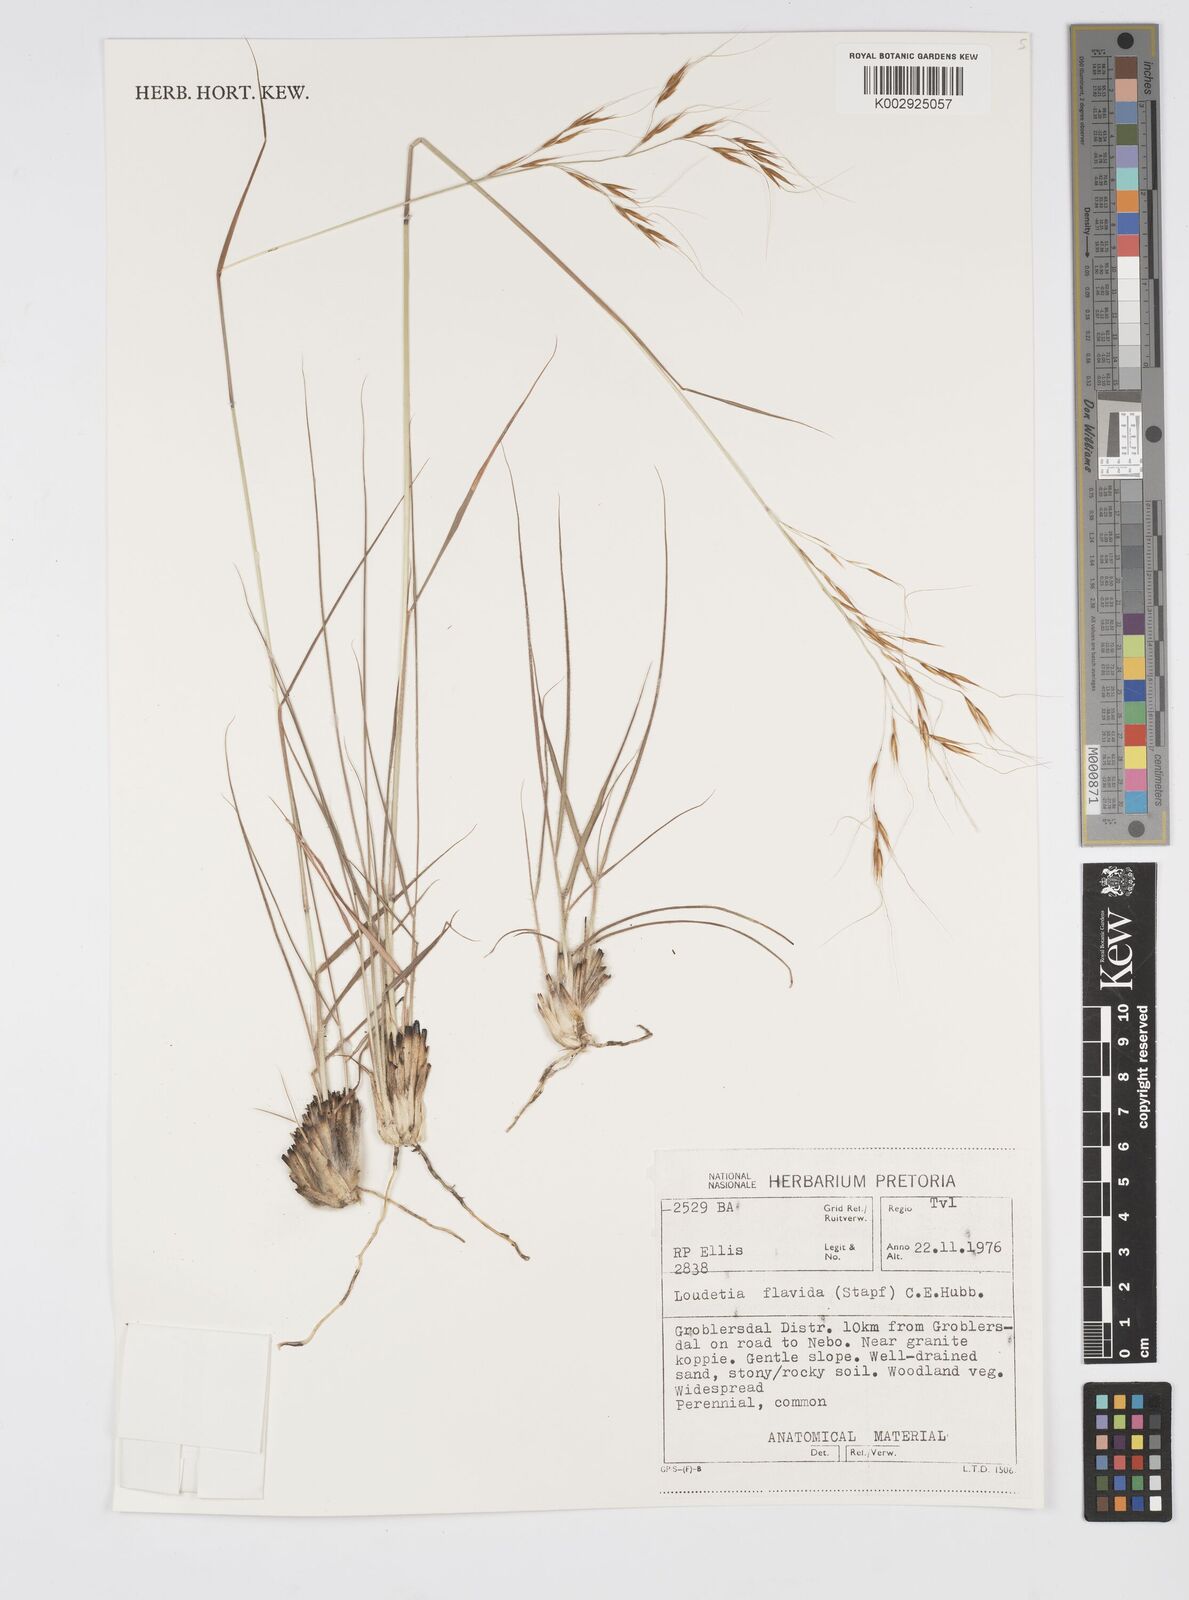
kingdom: Plantae
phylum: Tracheophyta
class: Liliopsida
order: Poales
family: Poaceae
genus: Loudetia
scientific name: Loudetia flavida
